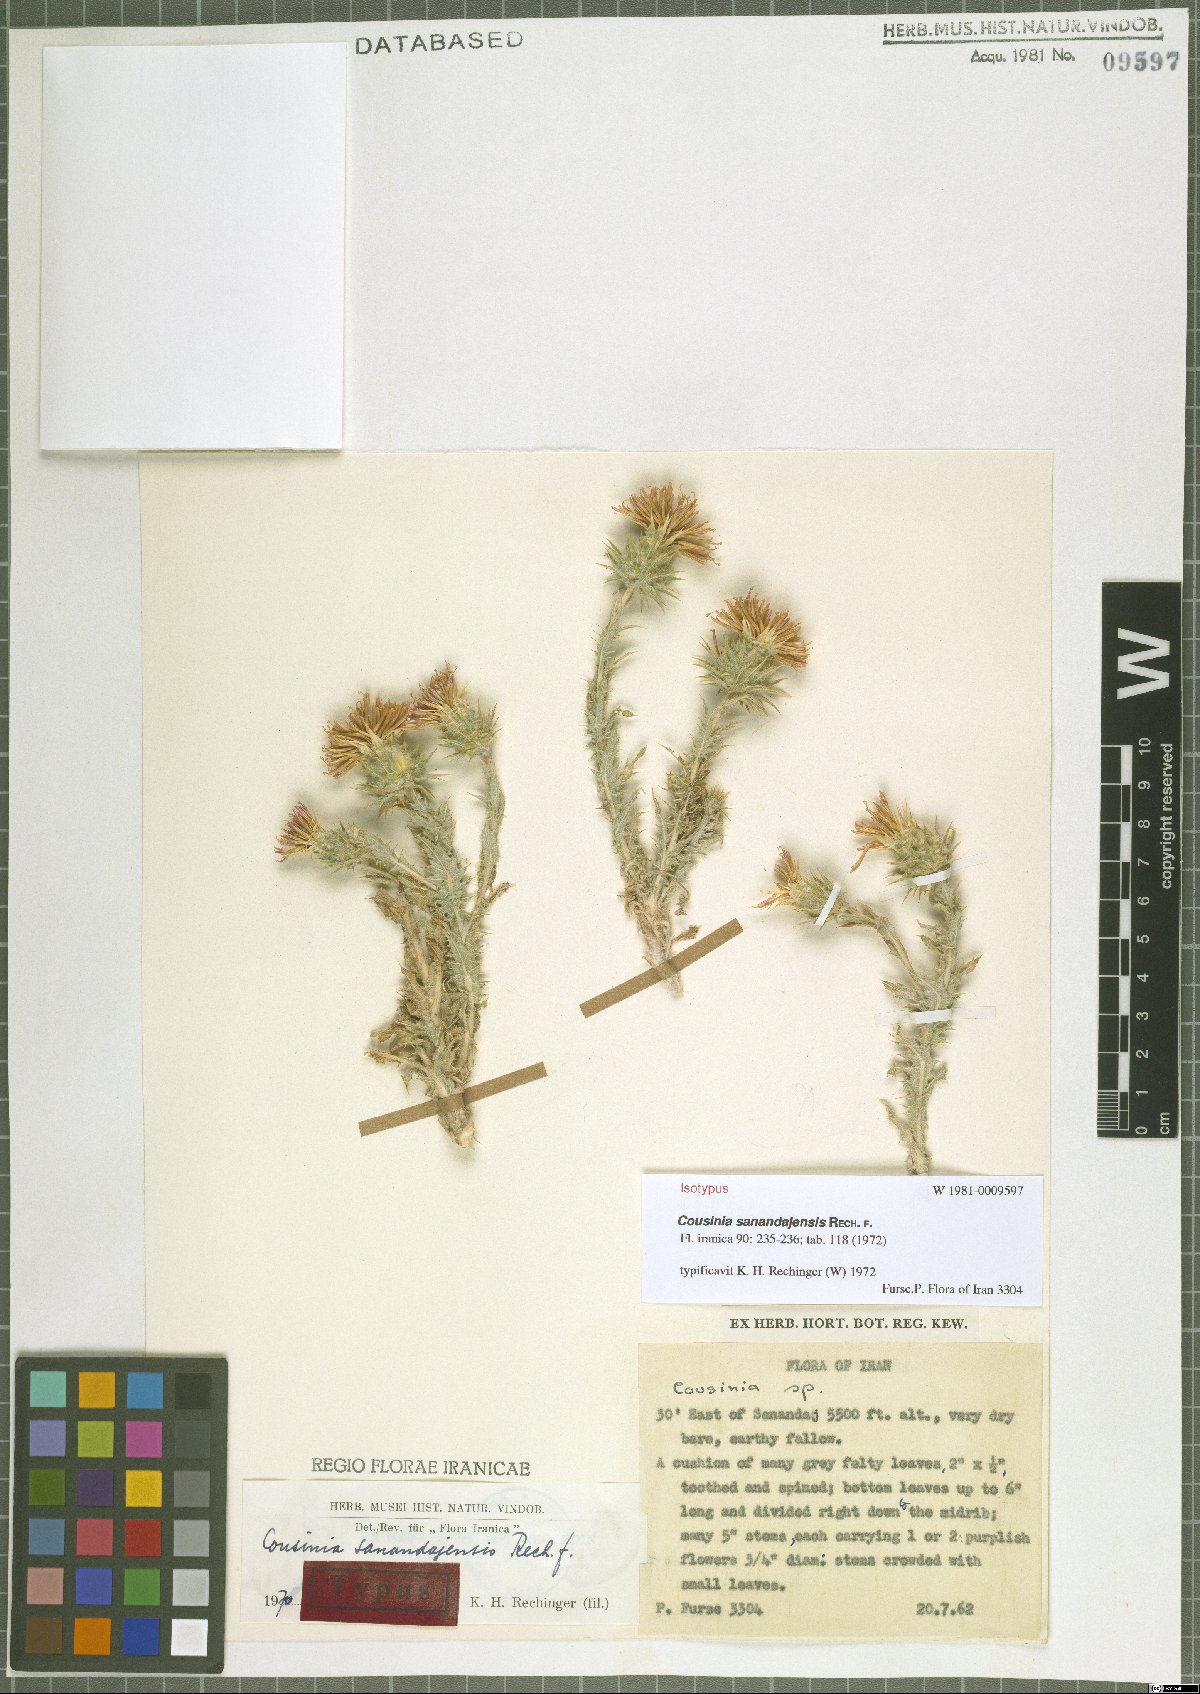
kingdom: Plantae
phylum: Tracheophyta
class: Magnoliopsida
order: Asterales
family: Asteraceae
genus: Cousinia
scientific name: Cousinia sanandajensis
